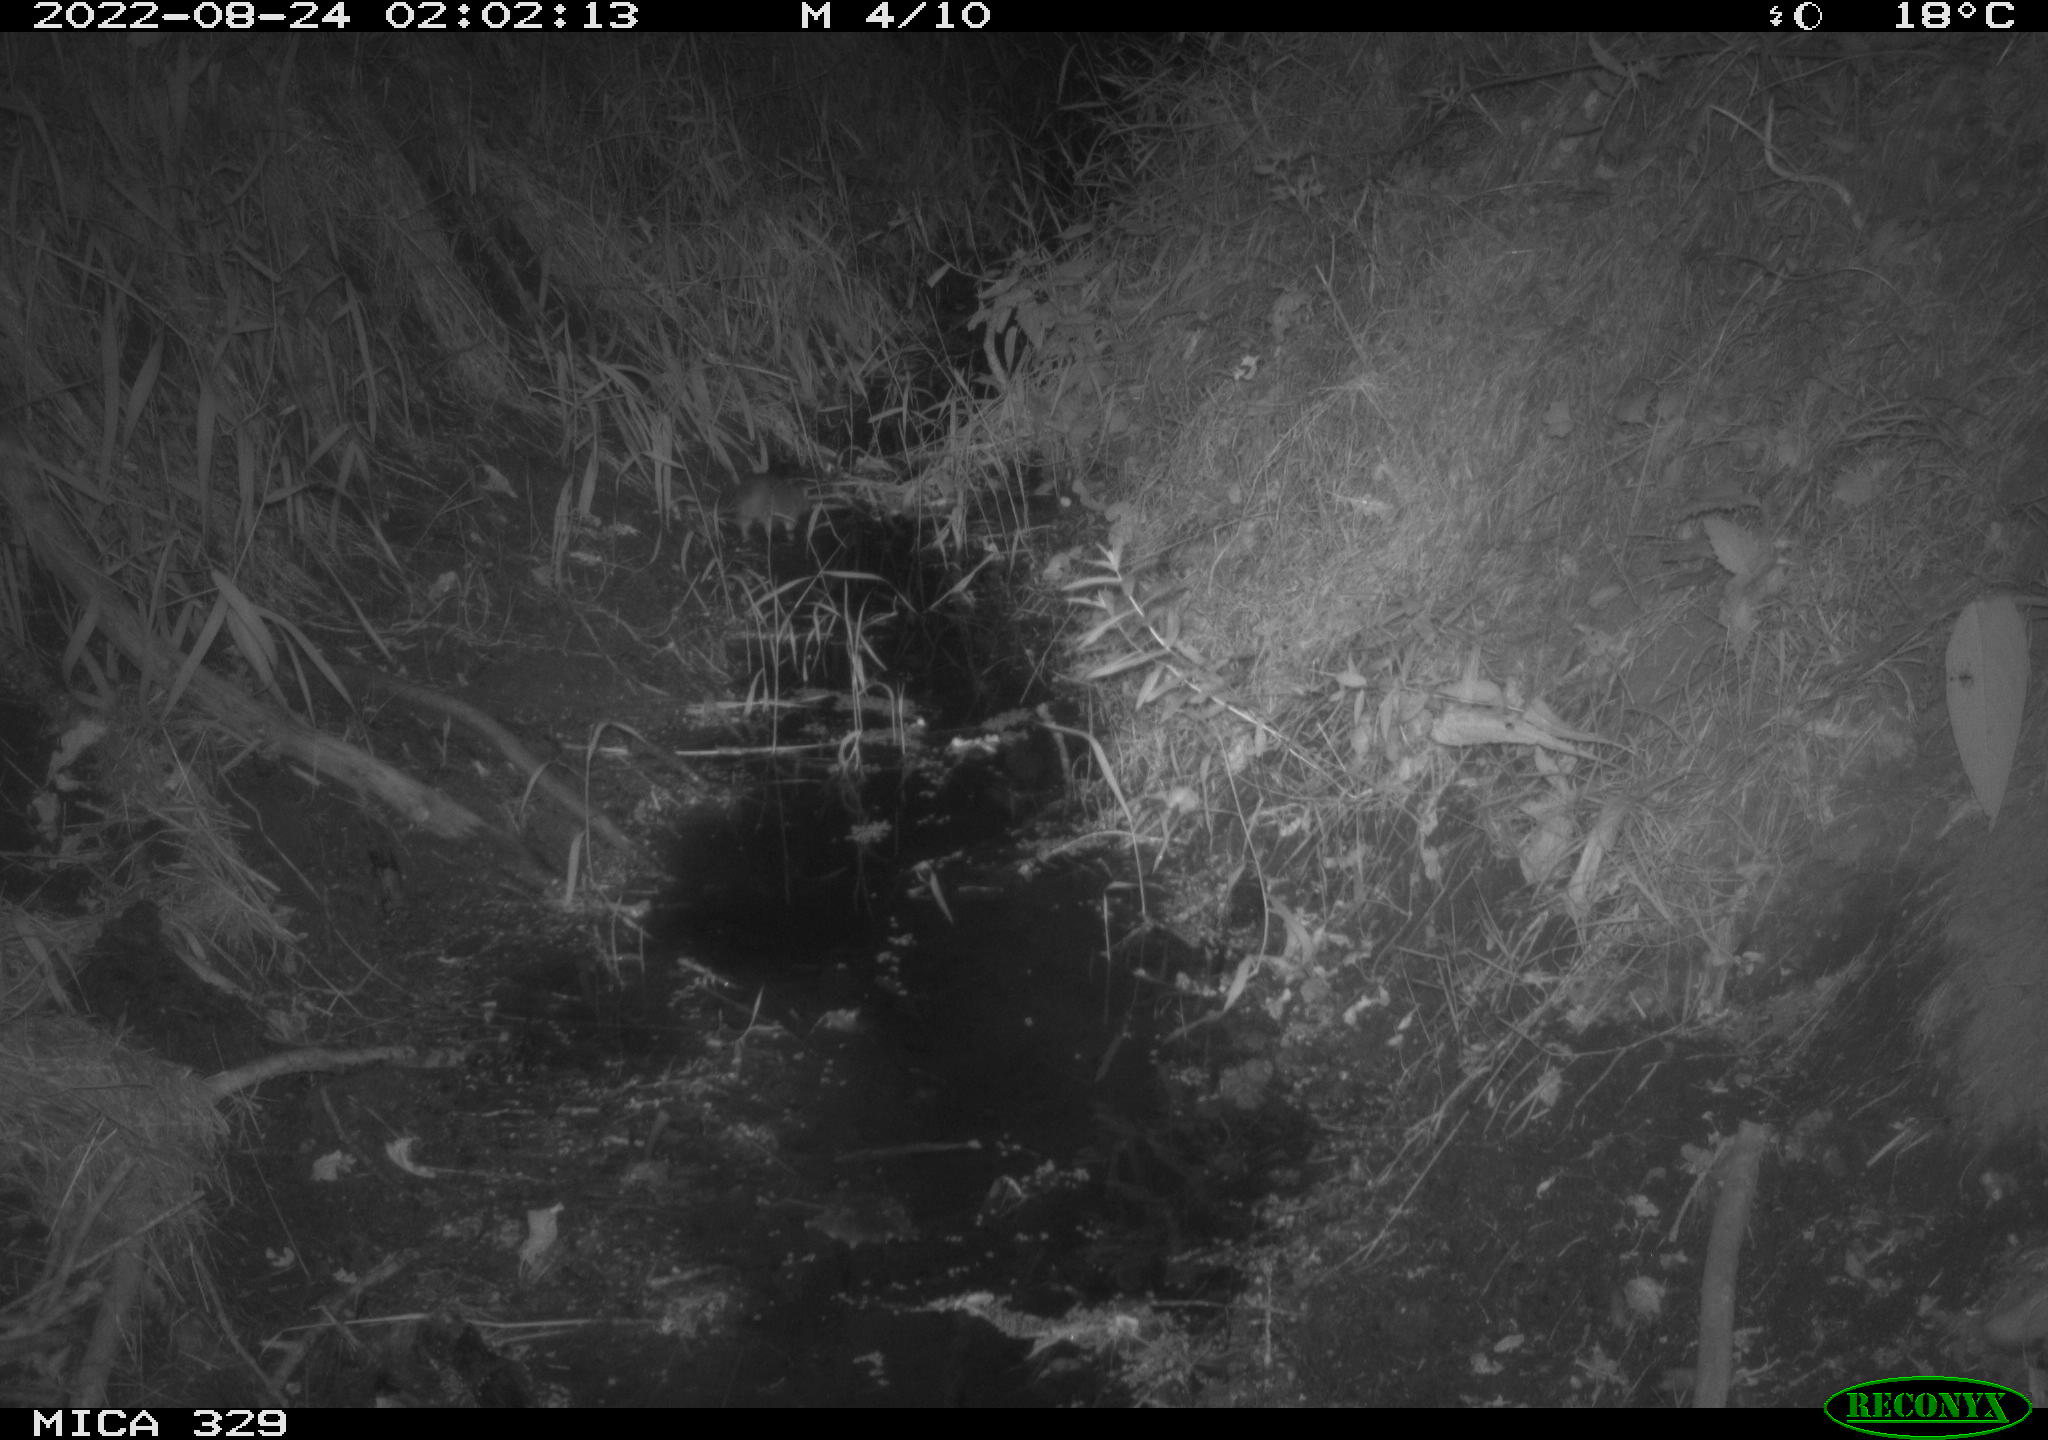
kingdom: Animalia
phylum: Chordata
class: Mammalia
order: Rodentia
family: Cricetidae
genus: Arvicola
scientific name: Arvicola amphibius
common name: European water vole
